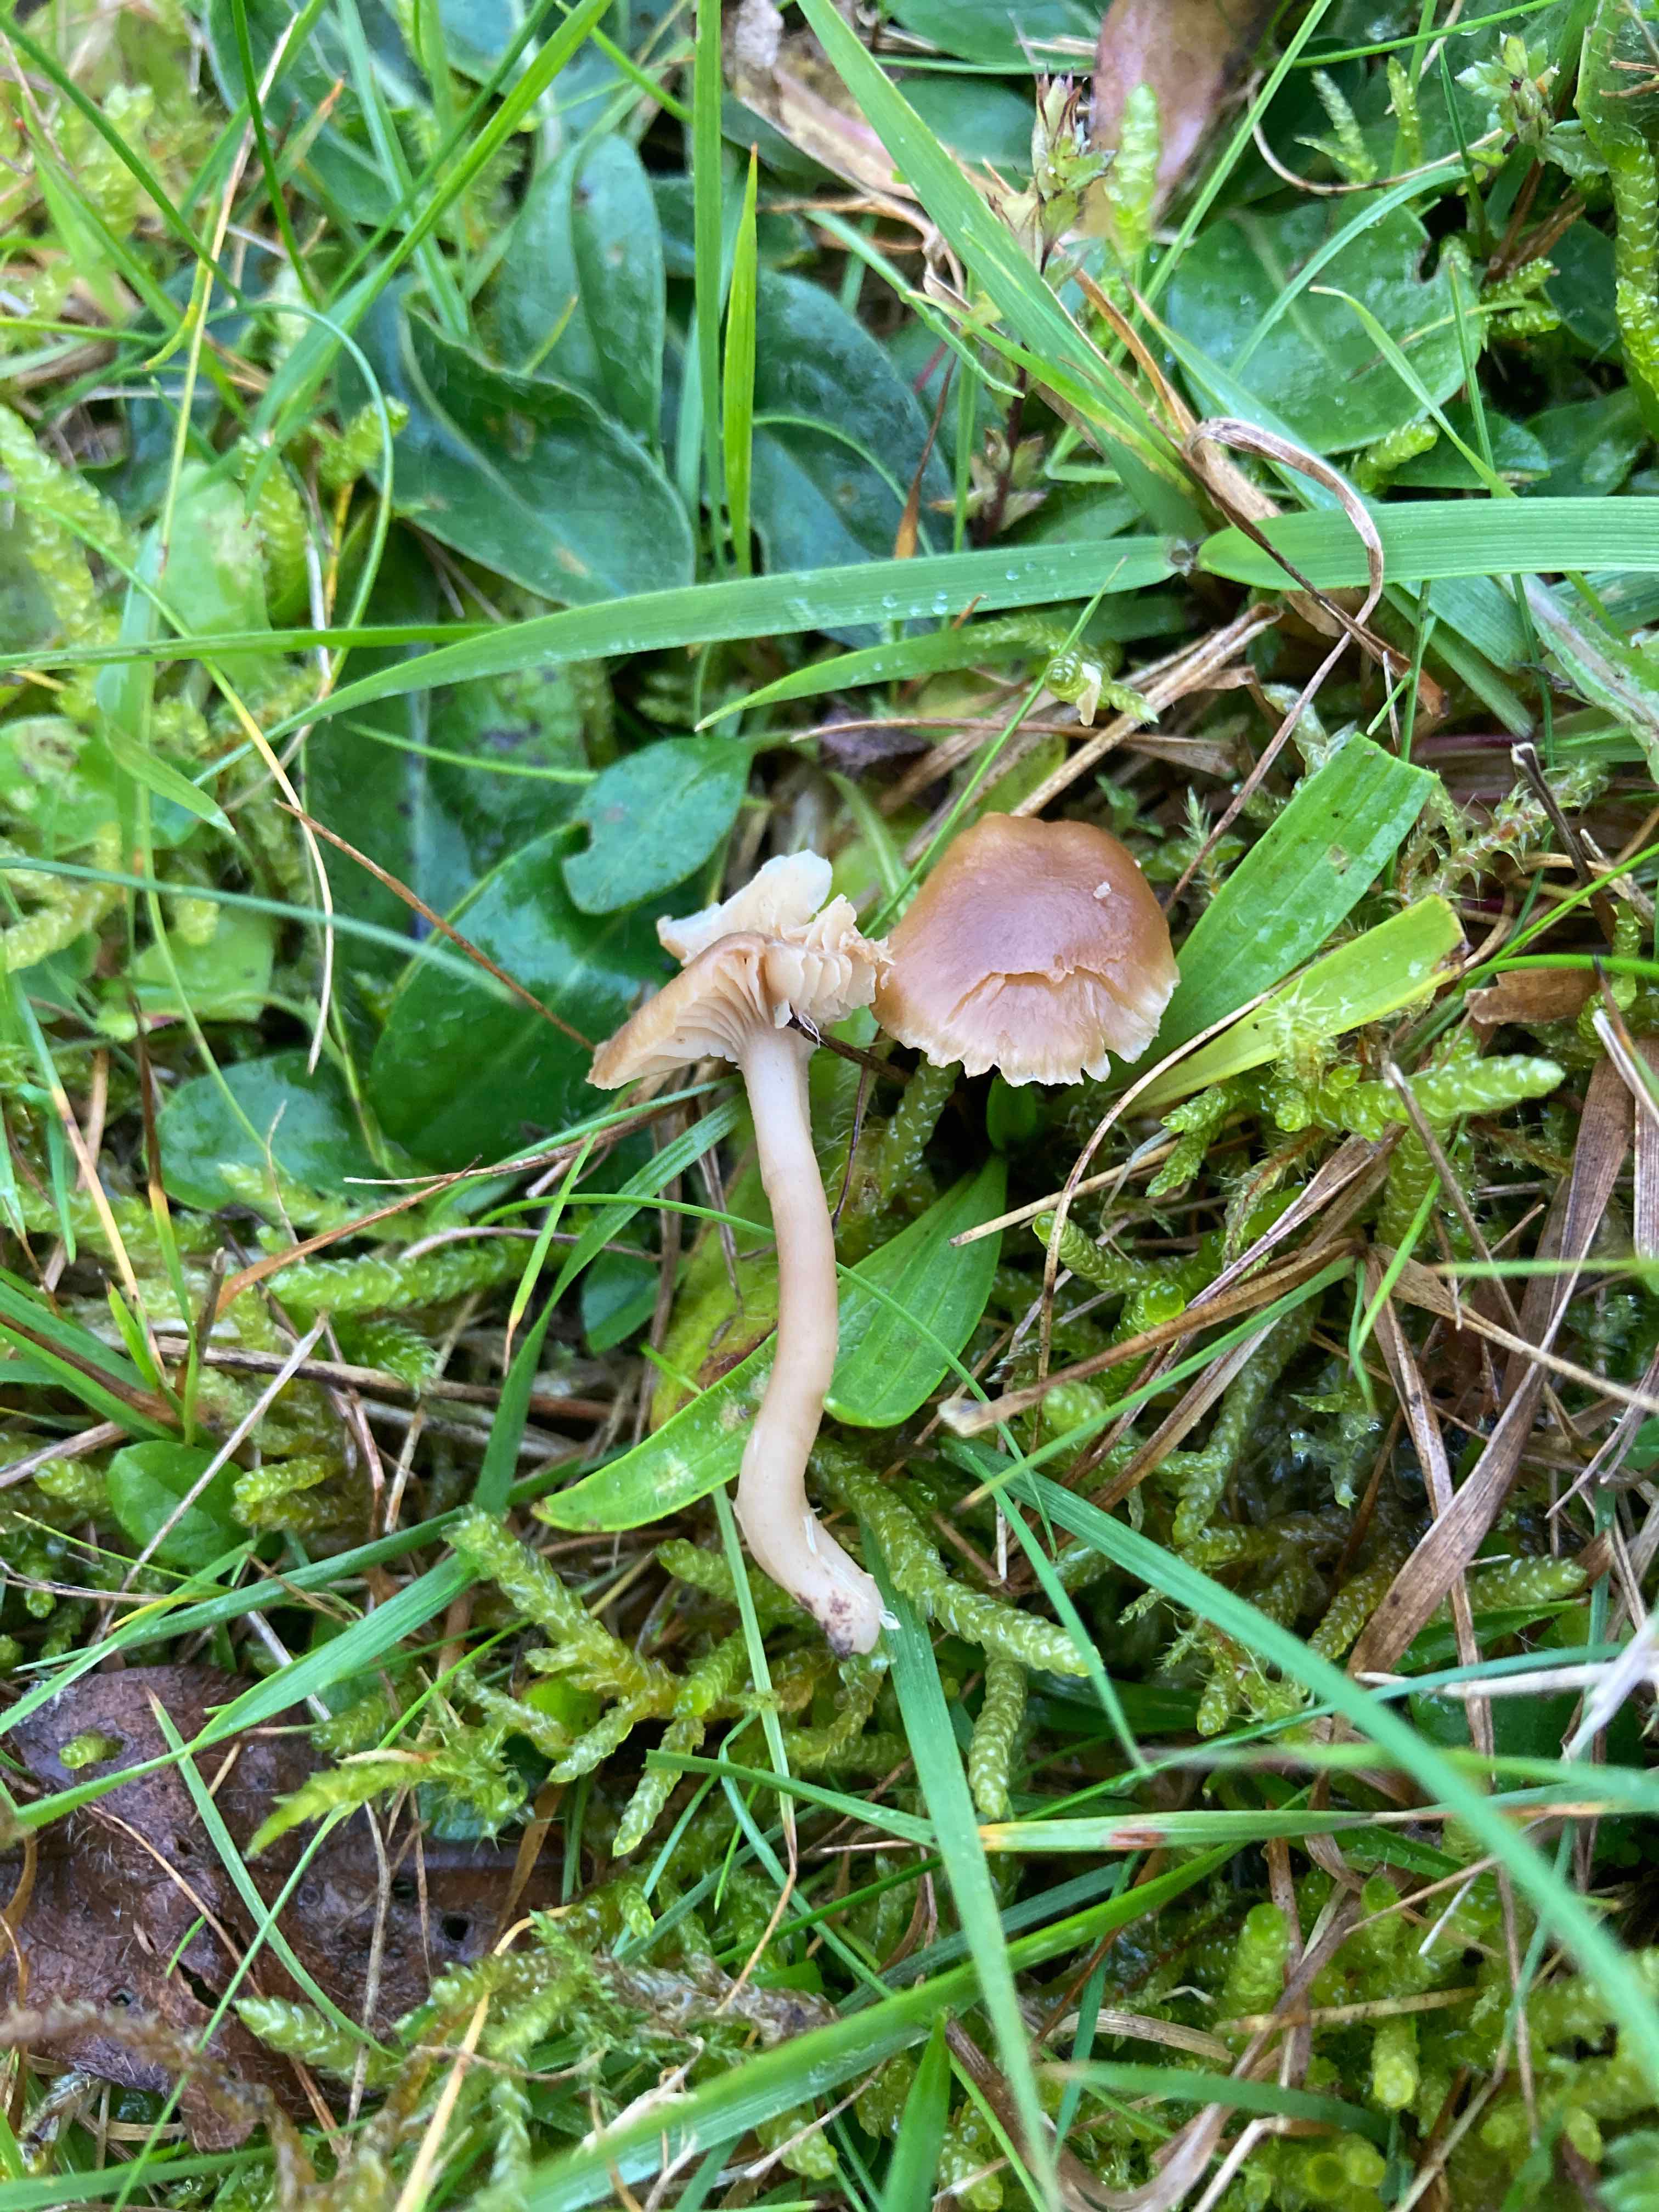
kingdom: Fungi
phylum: Basidiomycota
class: Agaricomycetes
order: Agaricales
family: Clavariaceae
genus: Camarophyllopsis
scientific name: Camarophyllopsis schulzeri
